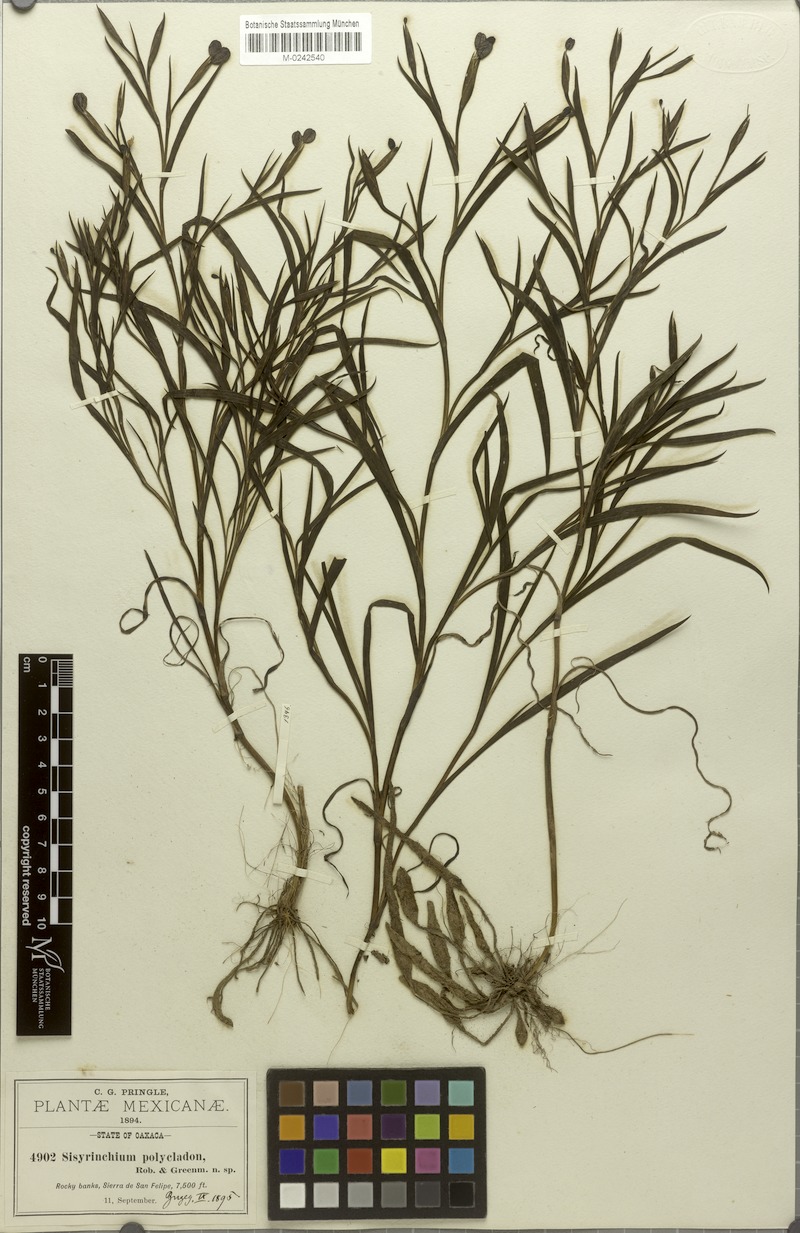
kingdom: Plantae
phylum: Tracheophyta
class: Liliopsida
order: Asparagales
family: Iridaceae
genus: Sisyrinchium
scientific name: Sisyrinchium angustissimum
